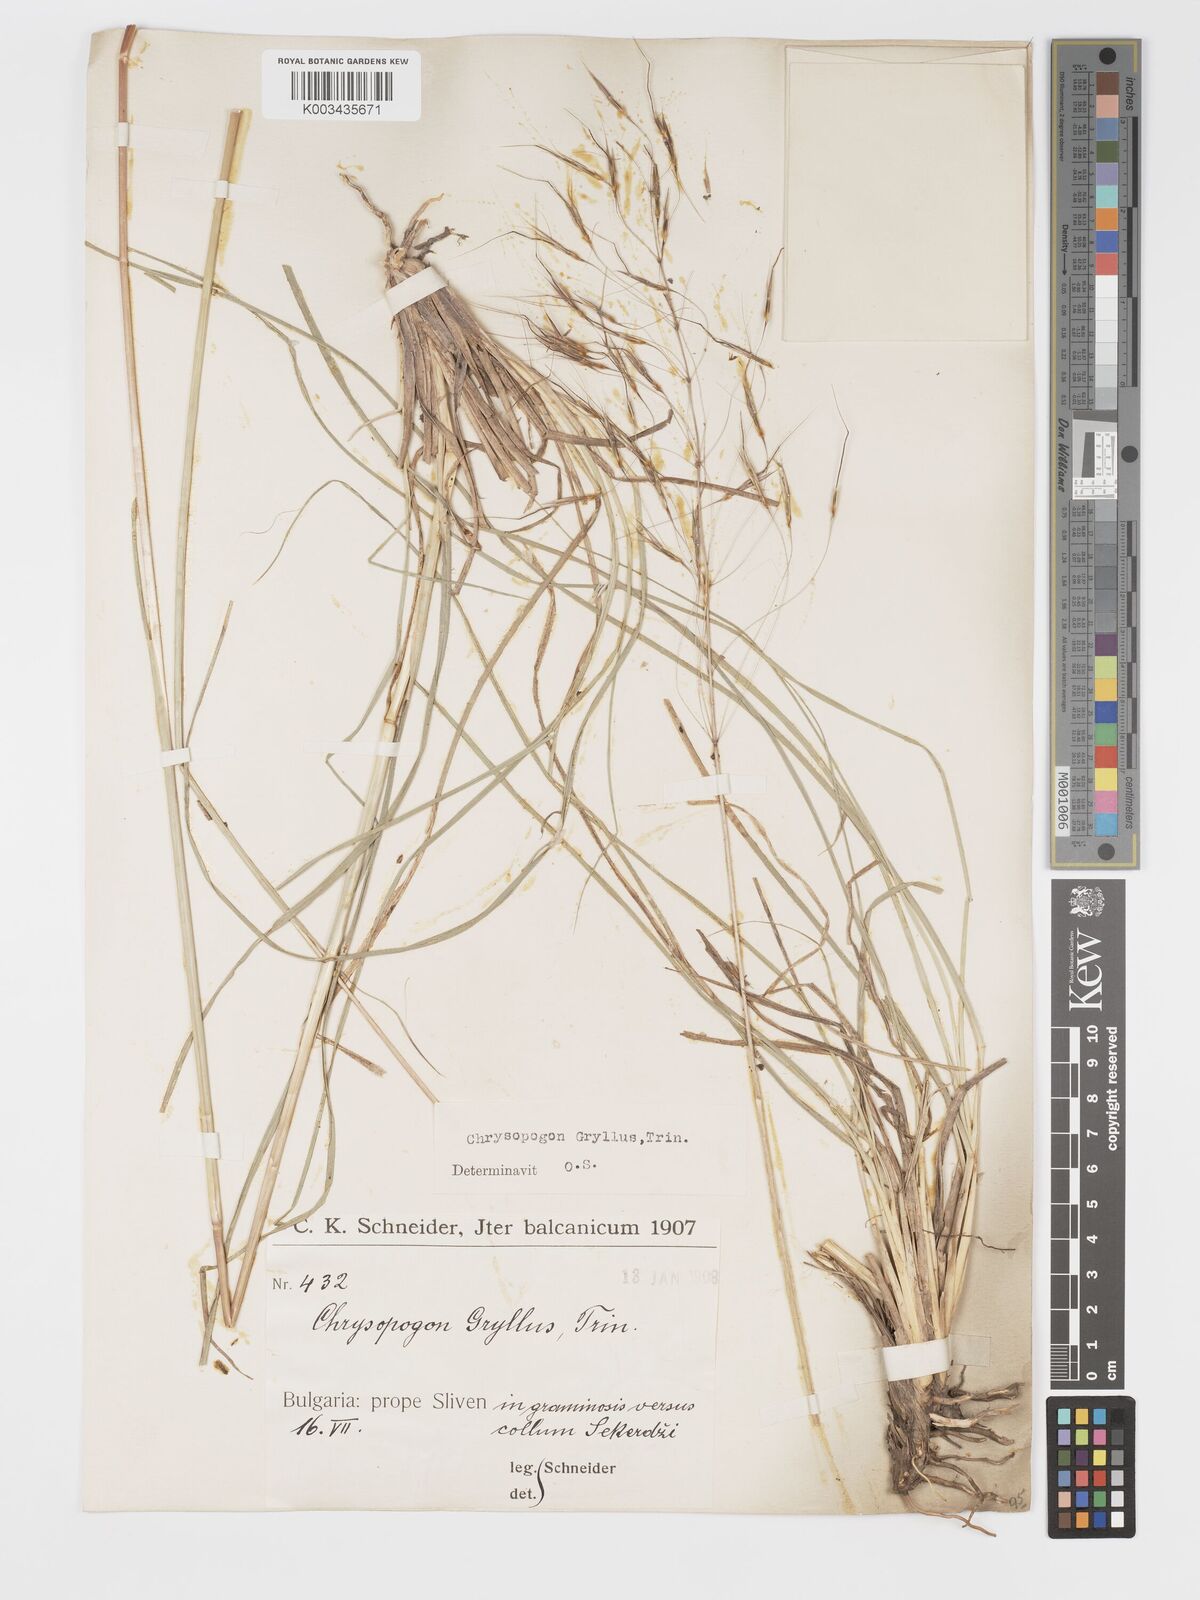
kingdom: Plantae
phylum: Tracheophyta
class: Liliopsida
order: Poales
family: Poaceae
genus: Chrysopogon
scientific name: Chrysopogon gryllus
